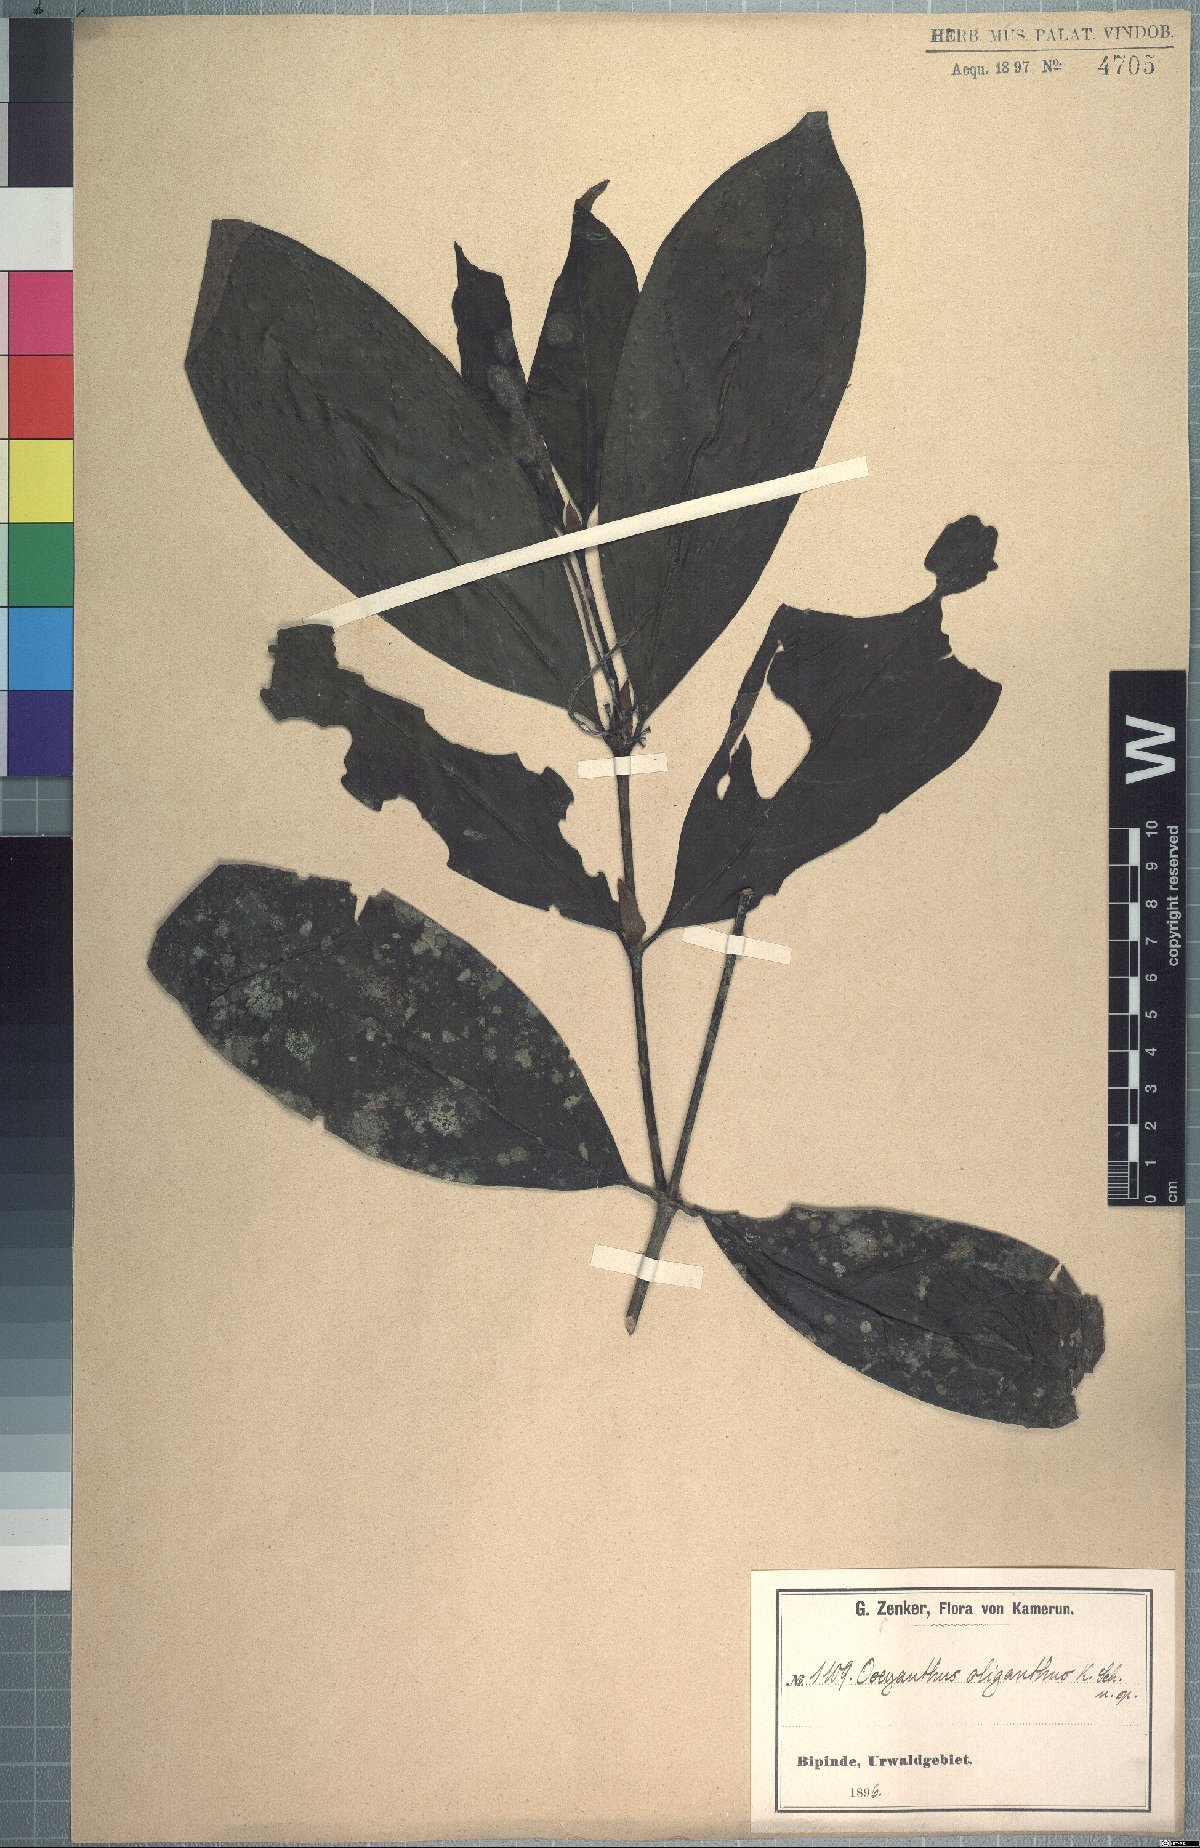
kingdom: Plantae
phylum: Tracheophyta
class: Magnoliopsida
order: Gentianales
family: Rubiaceae
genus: Oxyanthus
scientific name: Oxyanthus oliganthus
